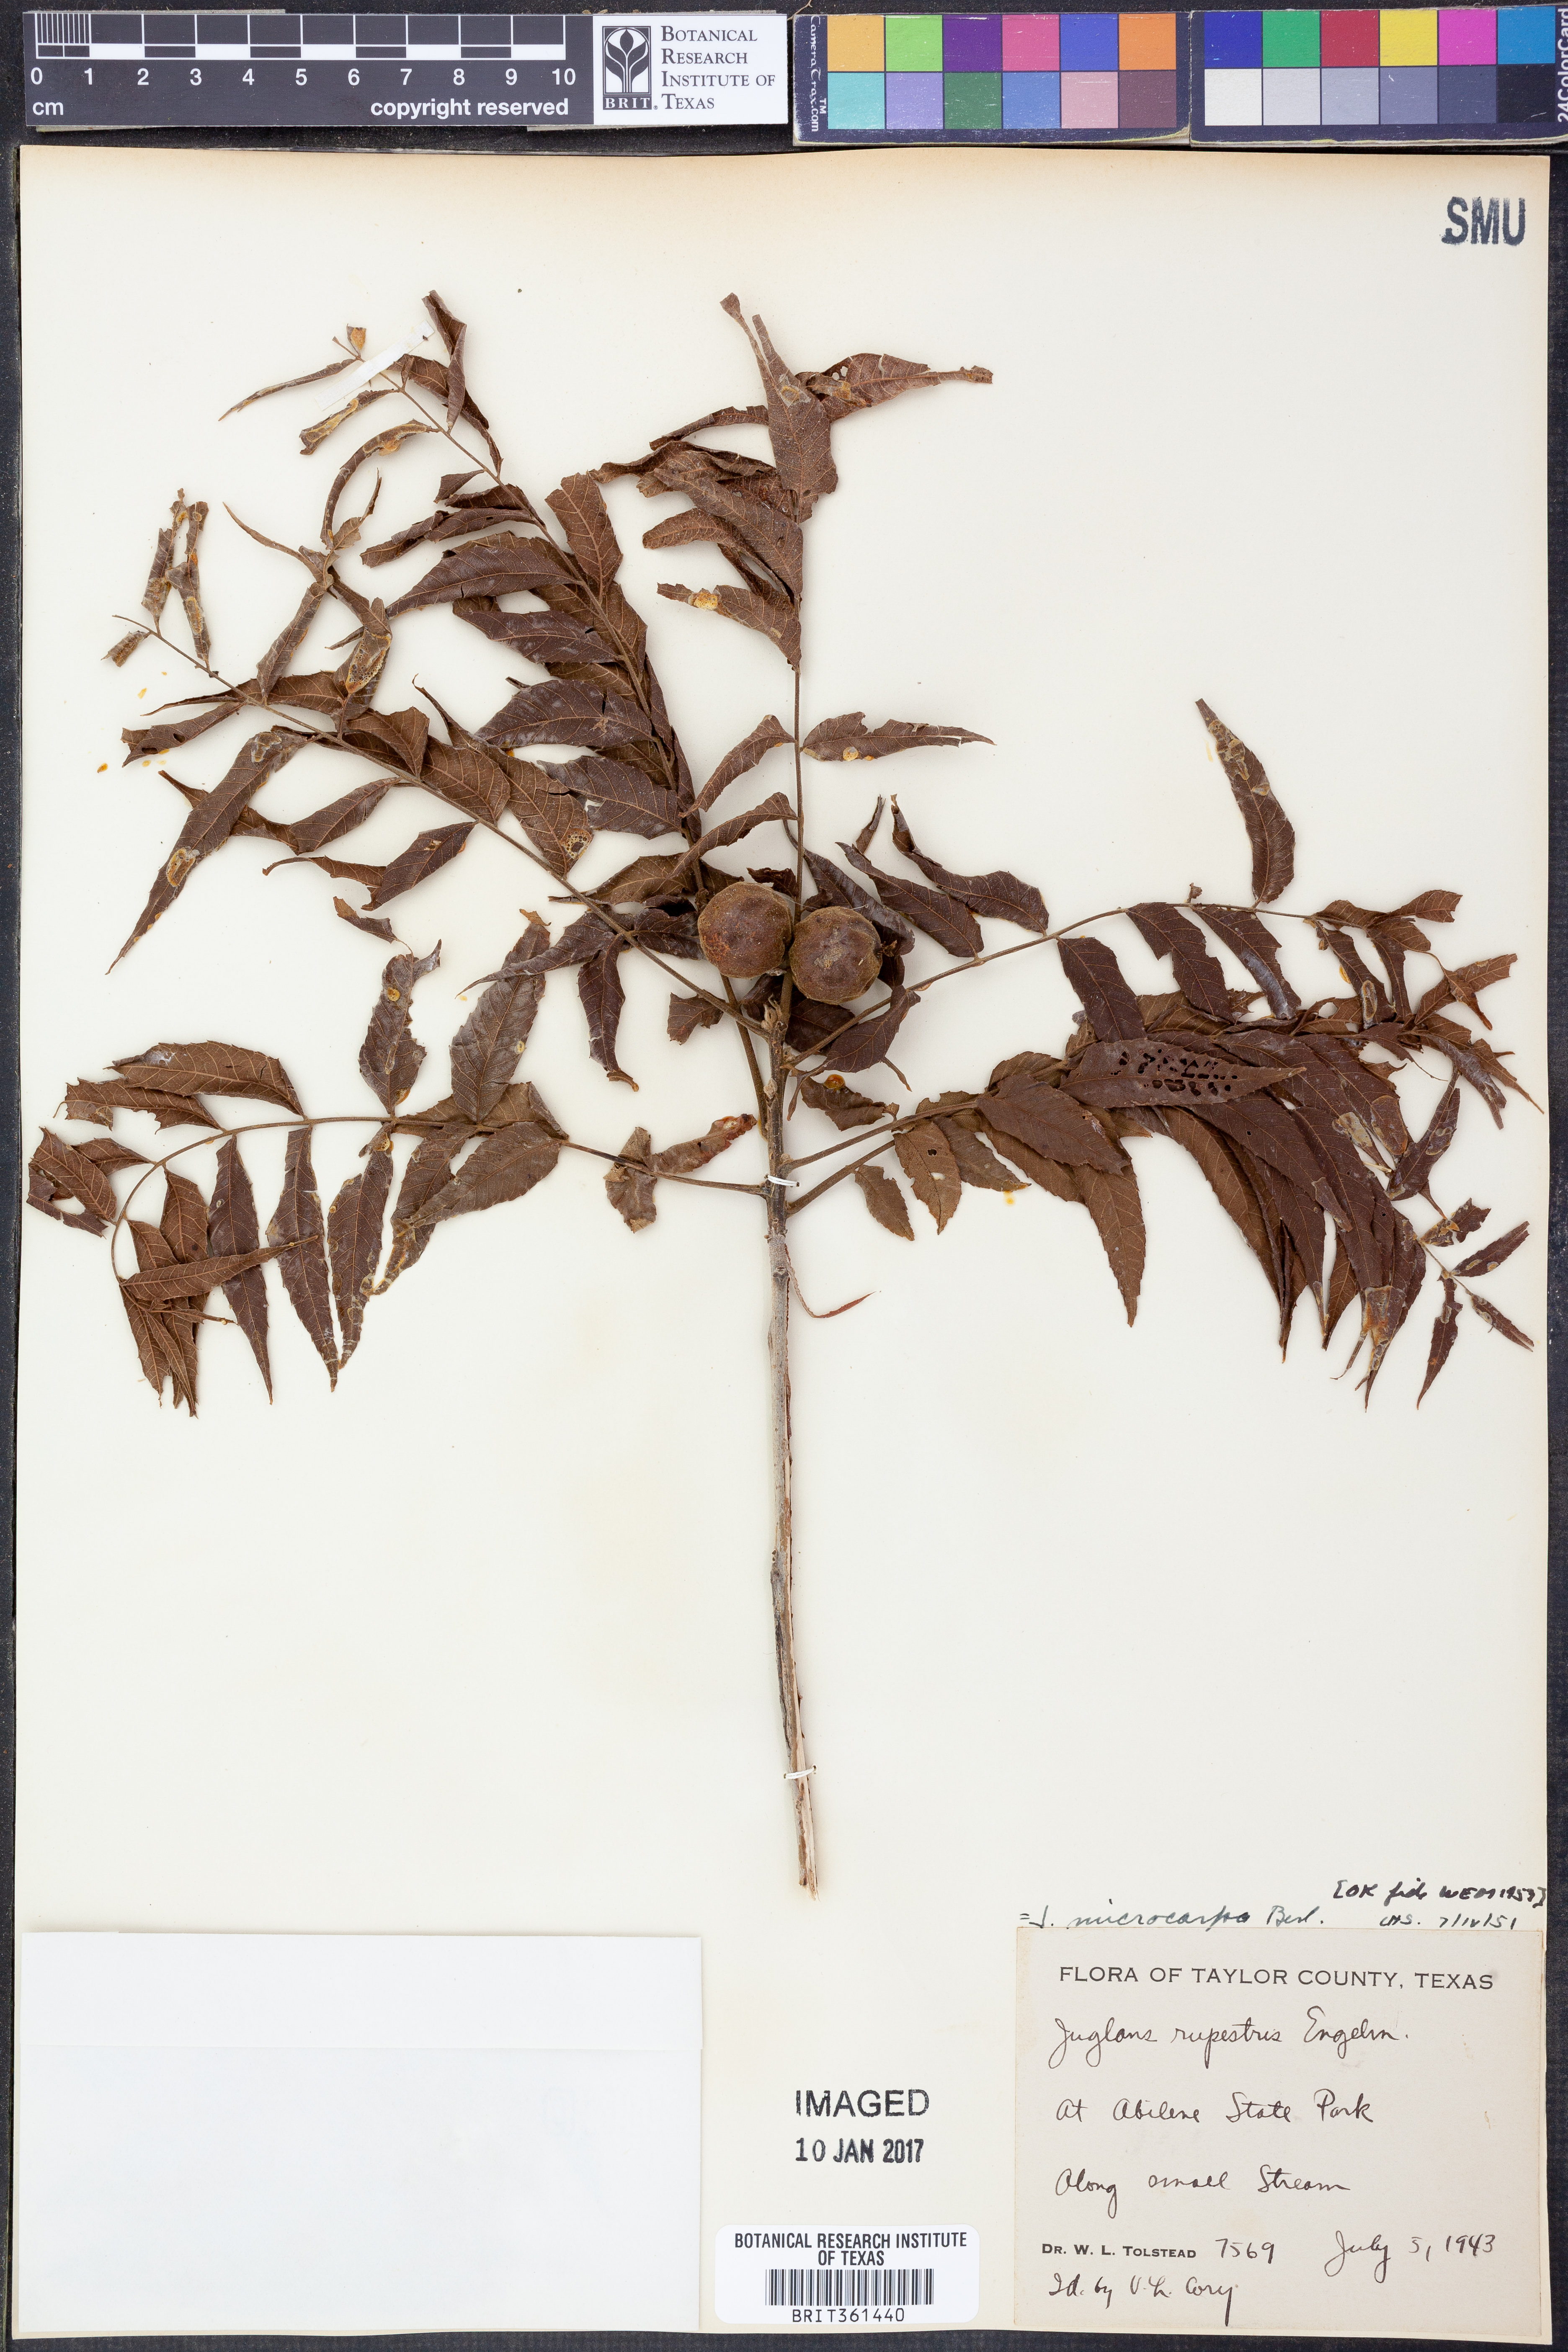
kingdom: Plantae
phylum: Tracheophyta
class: Magnoliopsida
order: Fagales
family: Juglandaceae
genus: Juglans
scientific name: Juglans microcarpa
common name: Texas walnut
